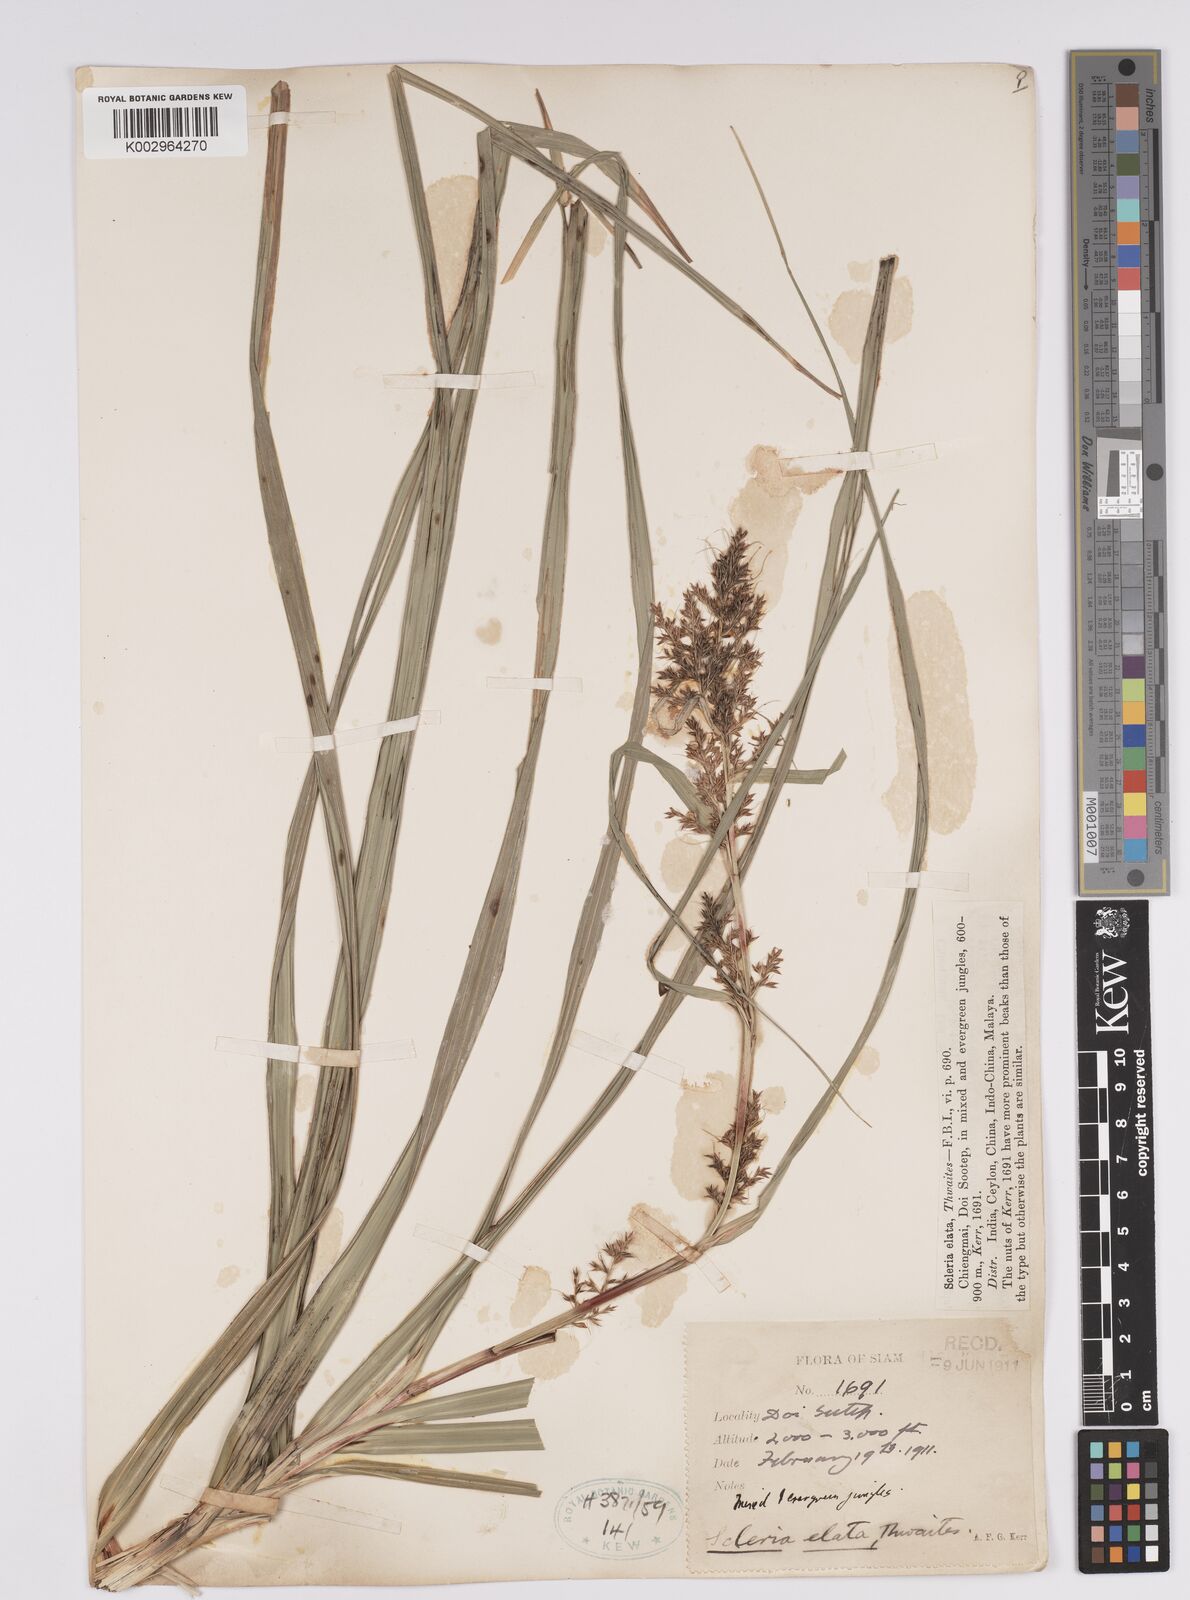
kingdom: Plantae
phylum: Tracheophyta
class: Liliopsida
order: Poales
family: Cyperaceae
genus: Scleria
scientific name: Scleria
